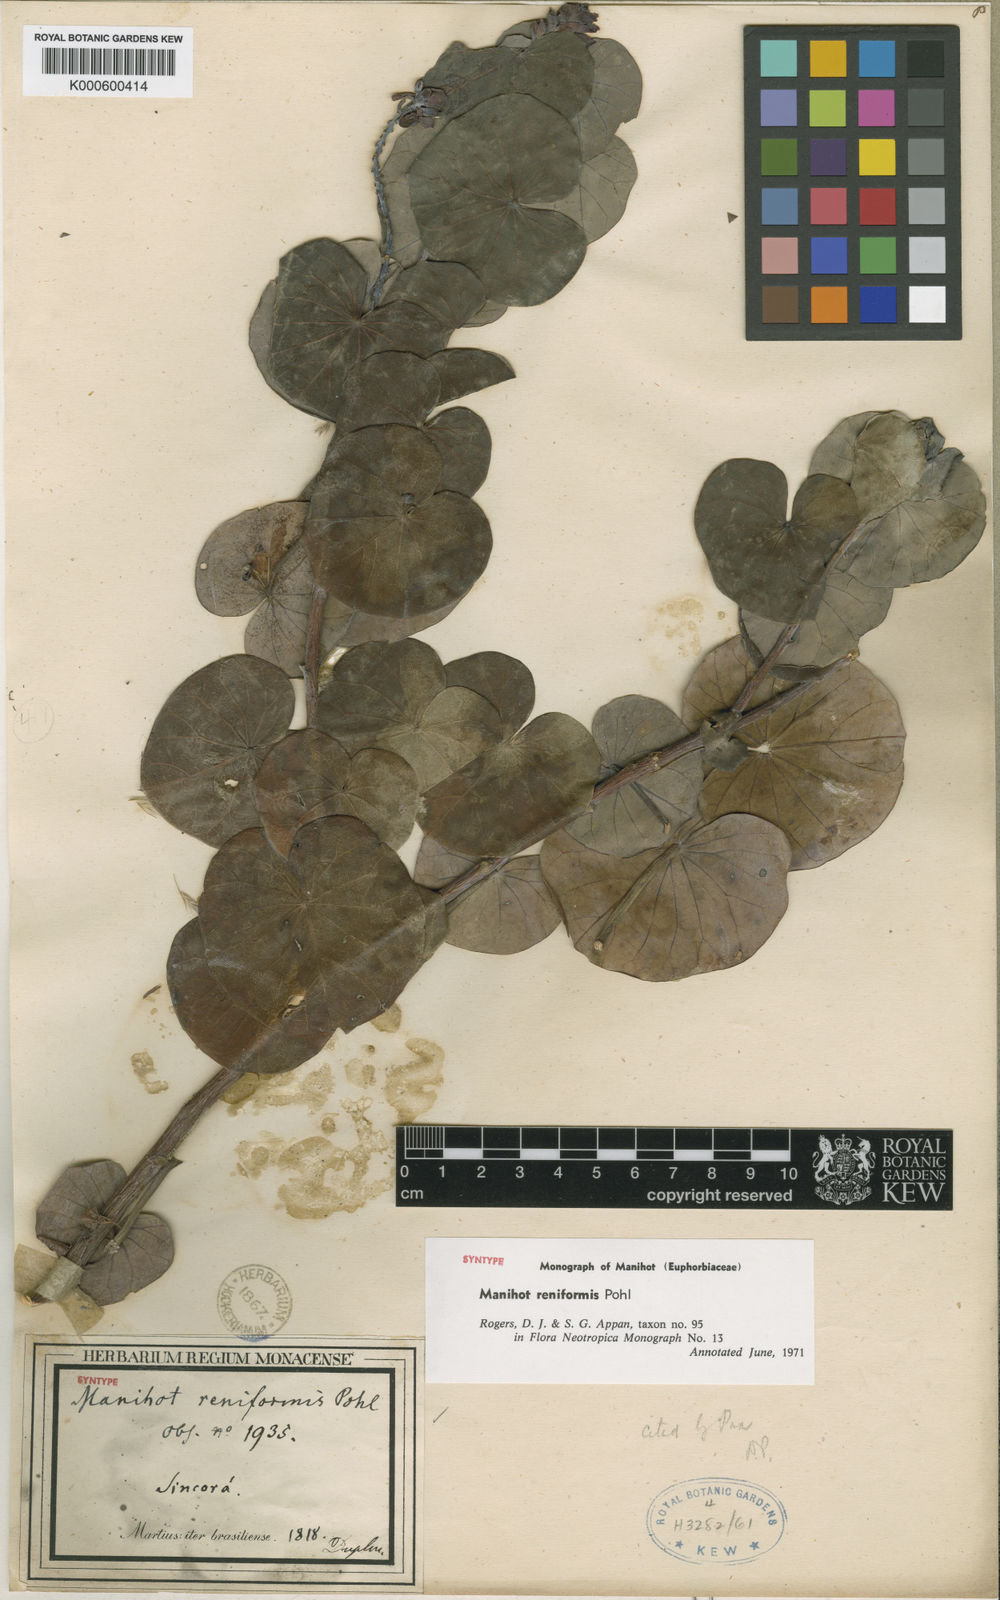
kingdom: Plantae
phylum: Tracheophyta
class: Magnoliopsida
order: Malpighiales
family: Euphorbiaceae
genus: Manihot
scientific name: Manihot reniformis
